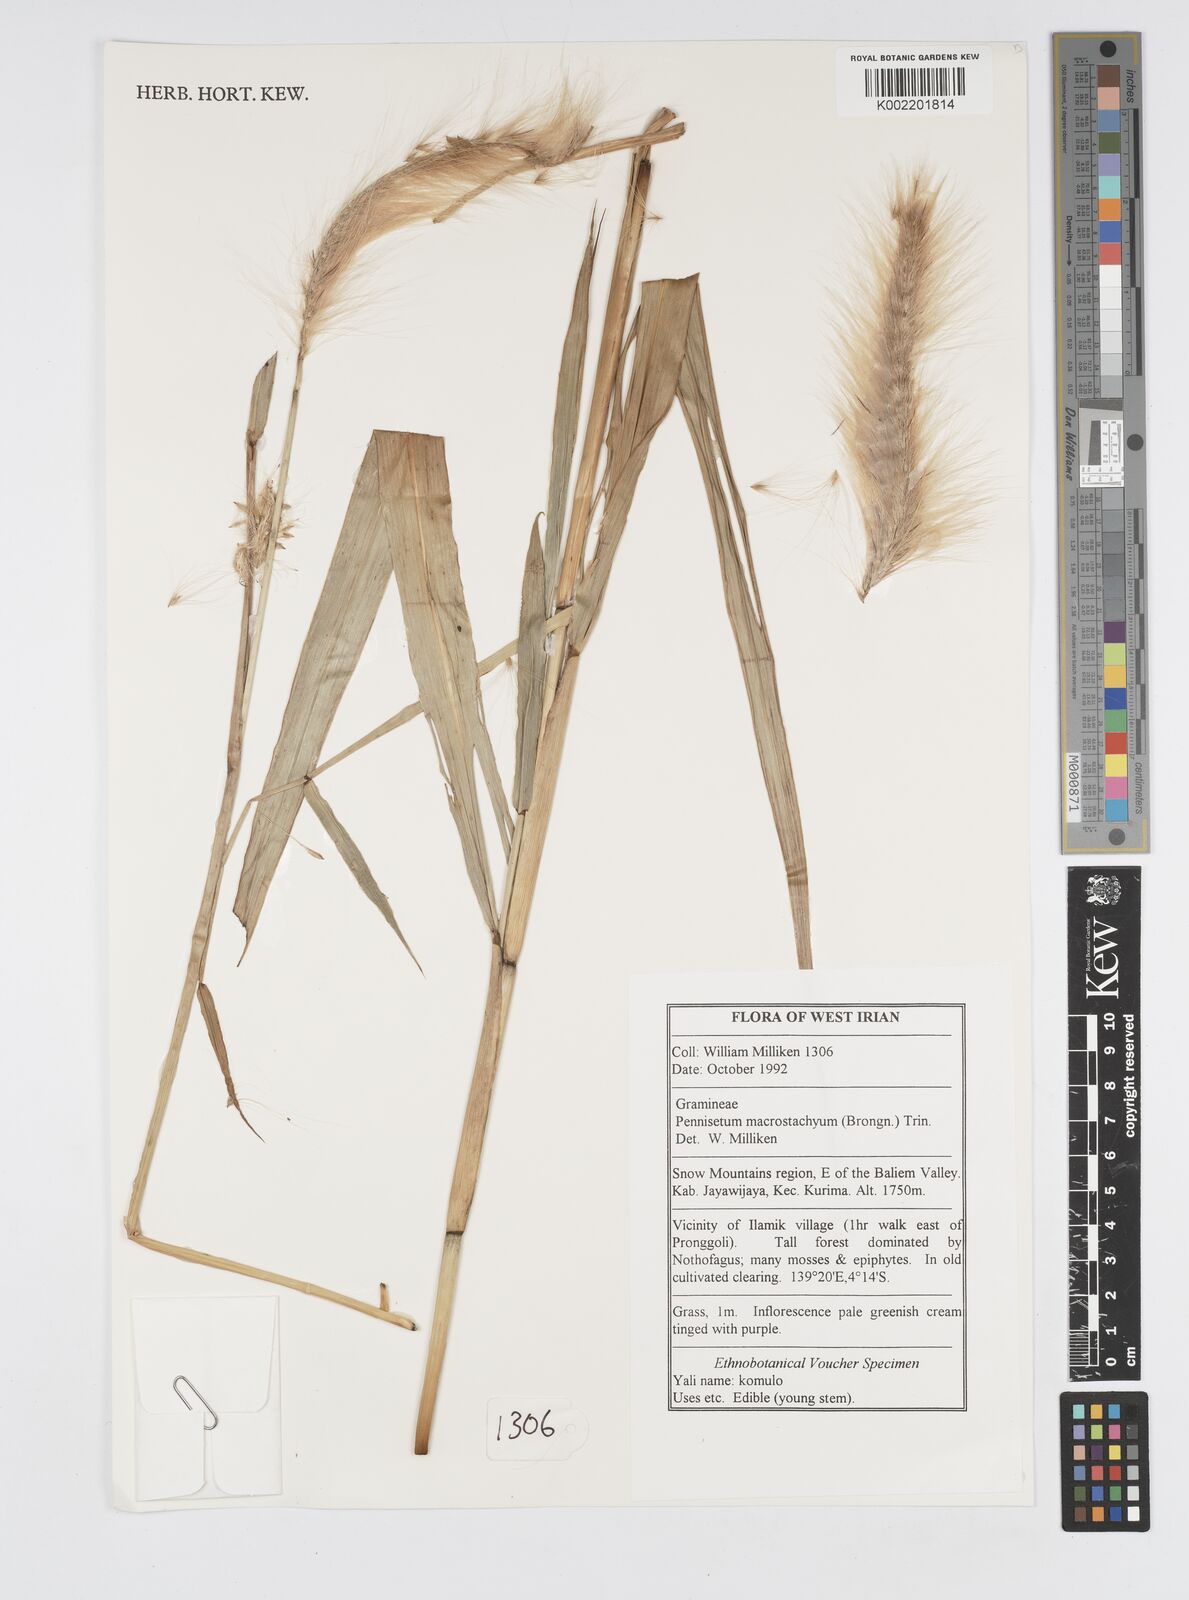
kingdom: Plantae
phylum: Tracheophyta
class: Liliopsida
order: Poales
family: Poaceae
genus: Cenchrus
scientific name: Cenchrus purpureus
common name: Elephant grass
